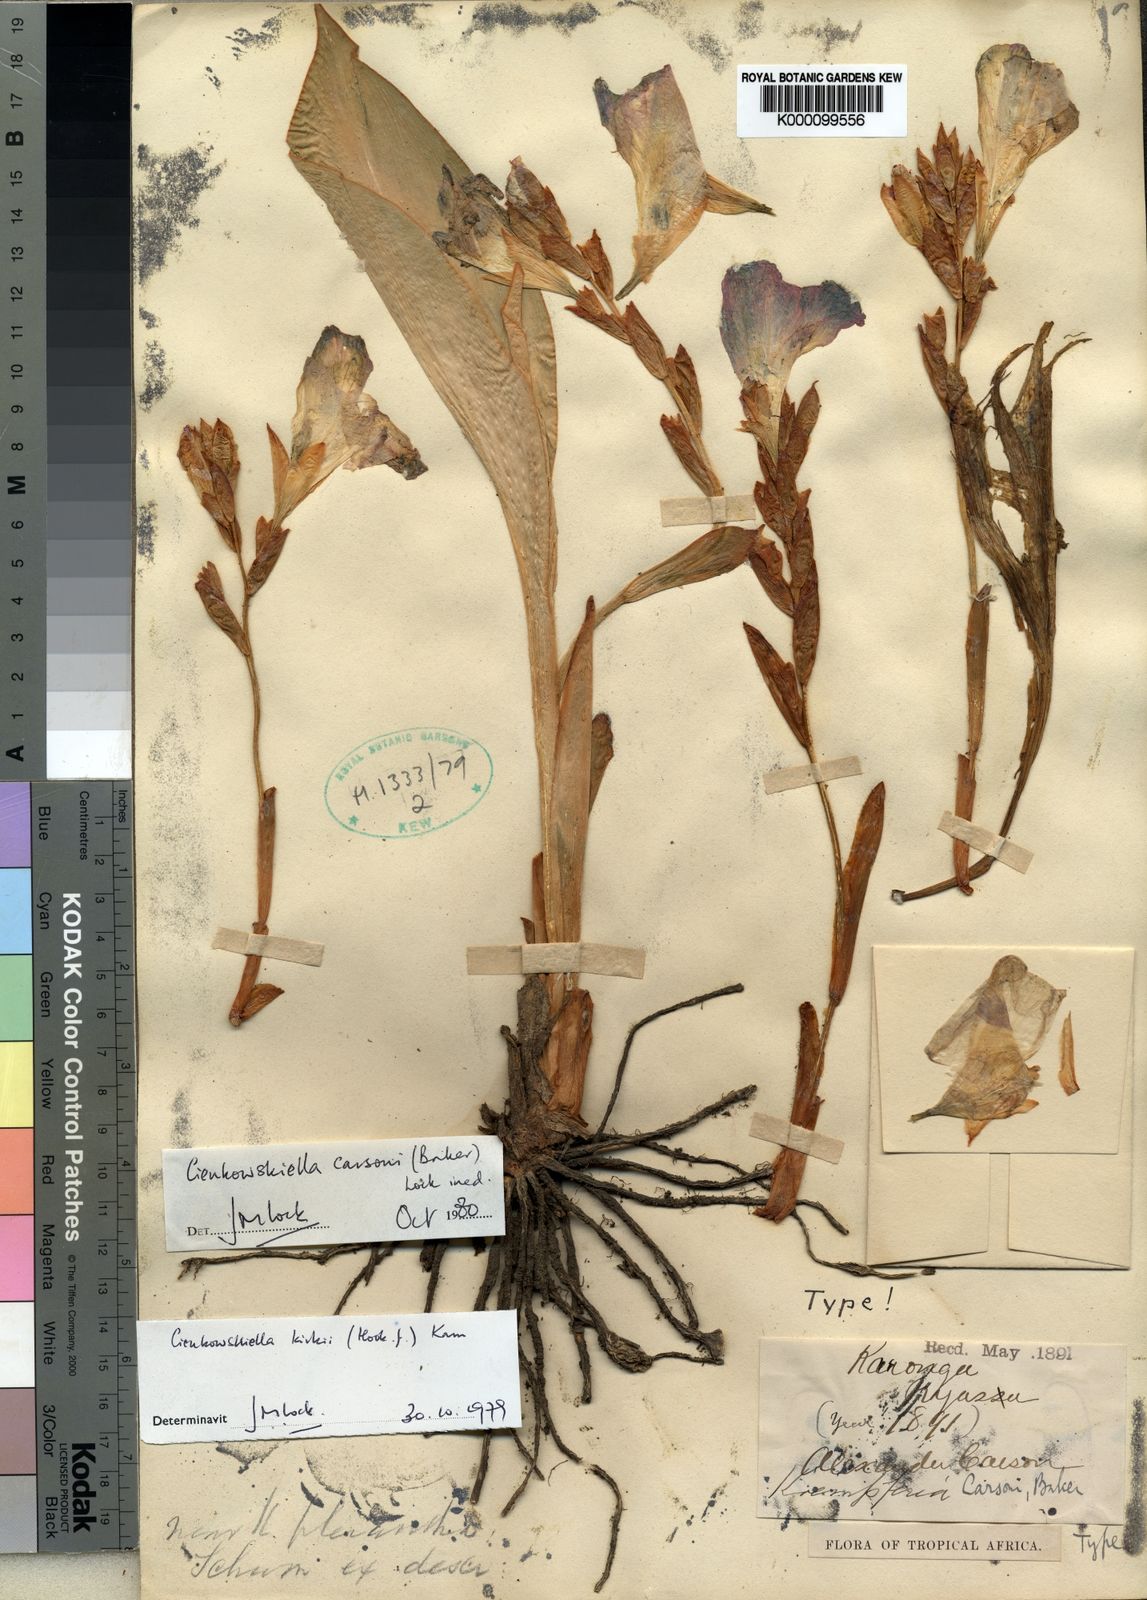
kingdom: Plantae
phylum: Tracheophyta
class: Liliopsida
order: Zingiberales
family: Zingiberaceae
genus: Siphonochilus
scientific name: Siphonochilus kirkii
